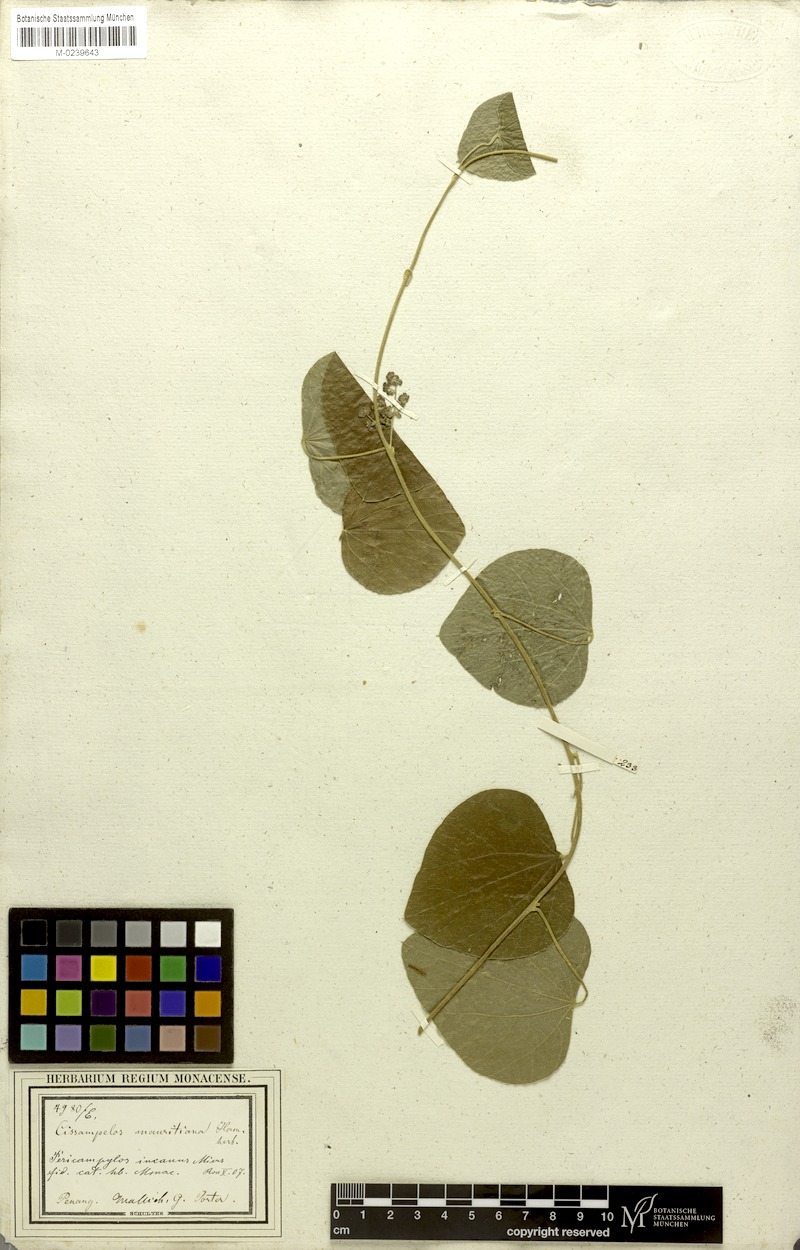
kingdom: Plantae
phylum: Tracheophyta
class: Magnoliopsida
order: Ranunculales
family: Menispermaceae
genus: Cissampelos
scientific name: Cissampelos pareira
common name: Velvetleaf
